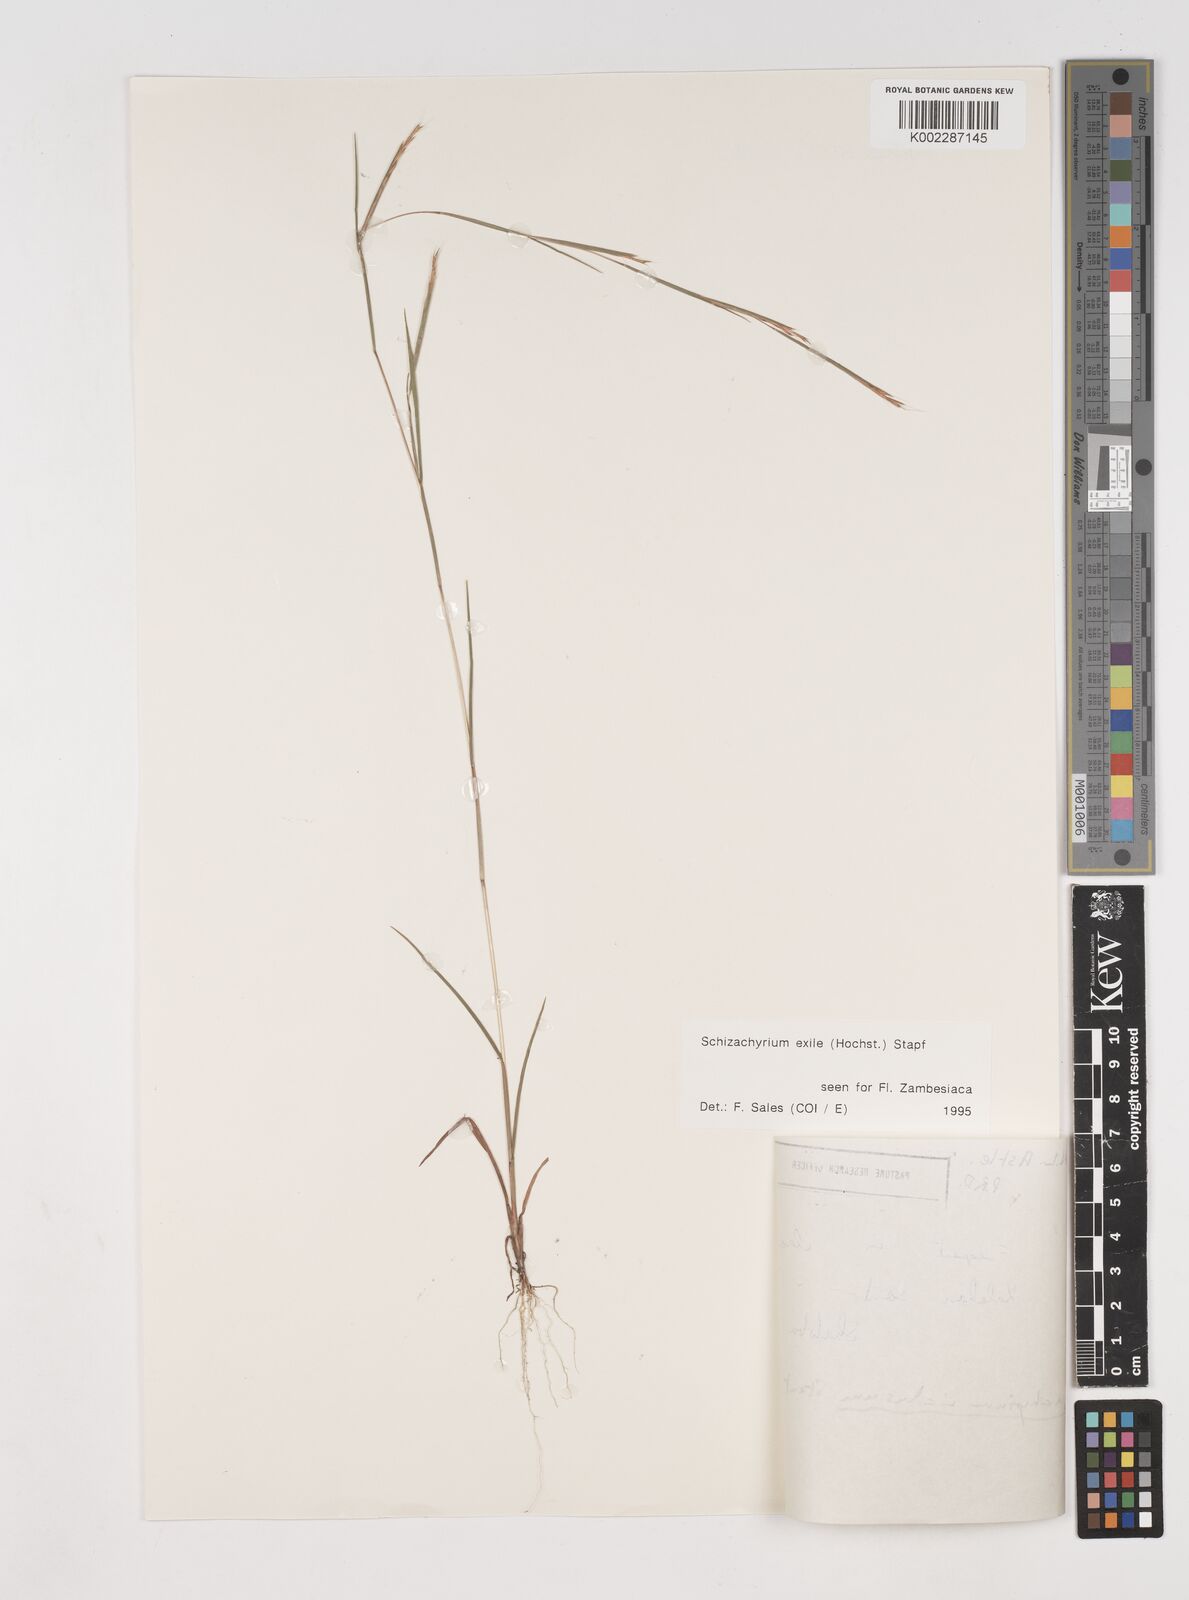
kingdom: Plantae
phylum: Tracheophyta
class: Liliopsida
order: Poales
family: Poaceae
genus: Schizachyrium
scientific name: Schizachyrium exile
